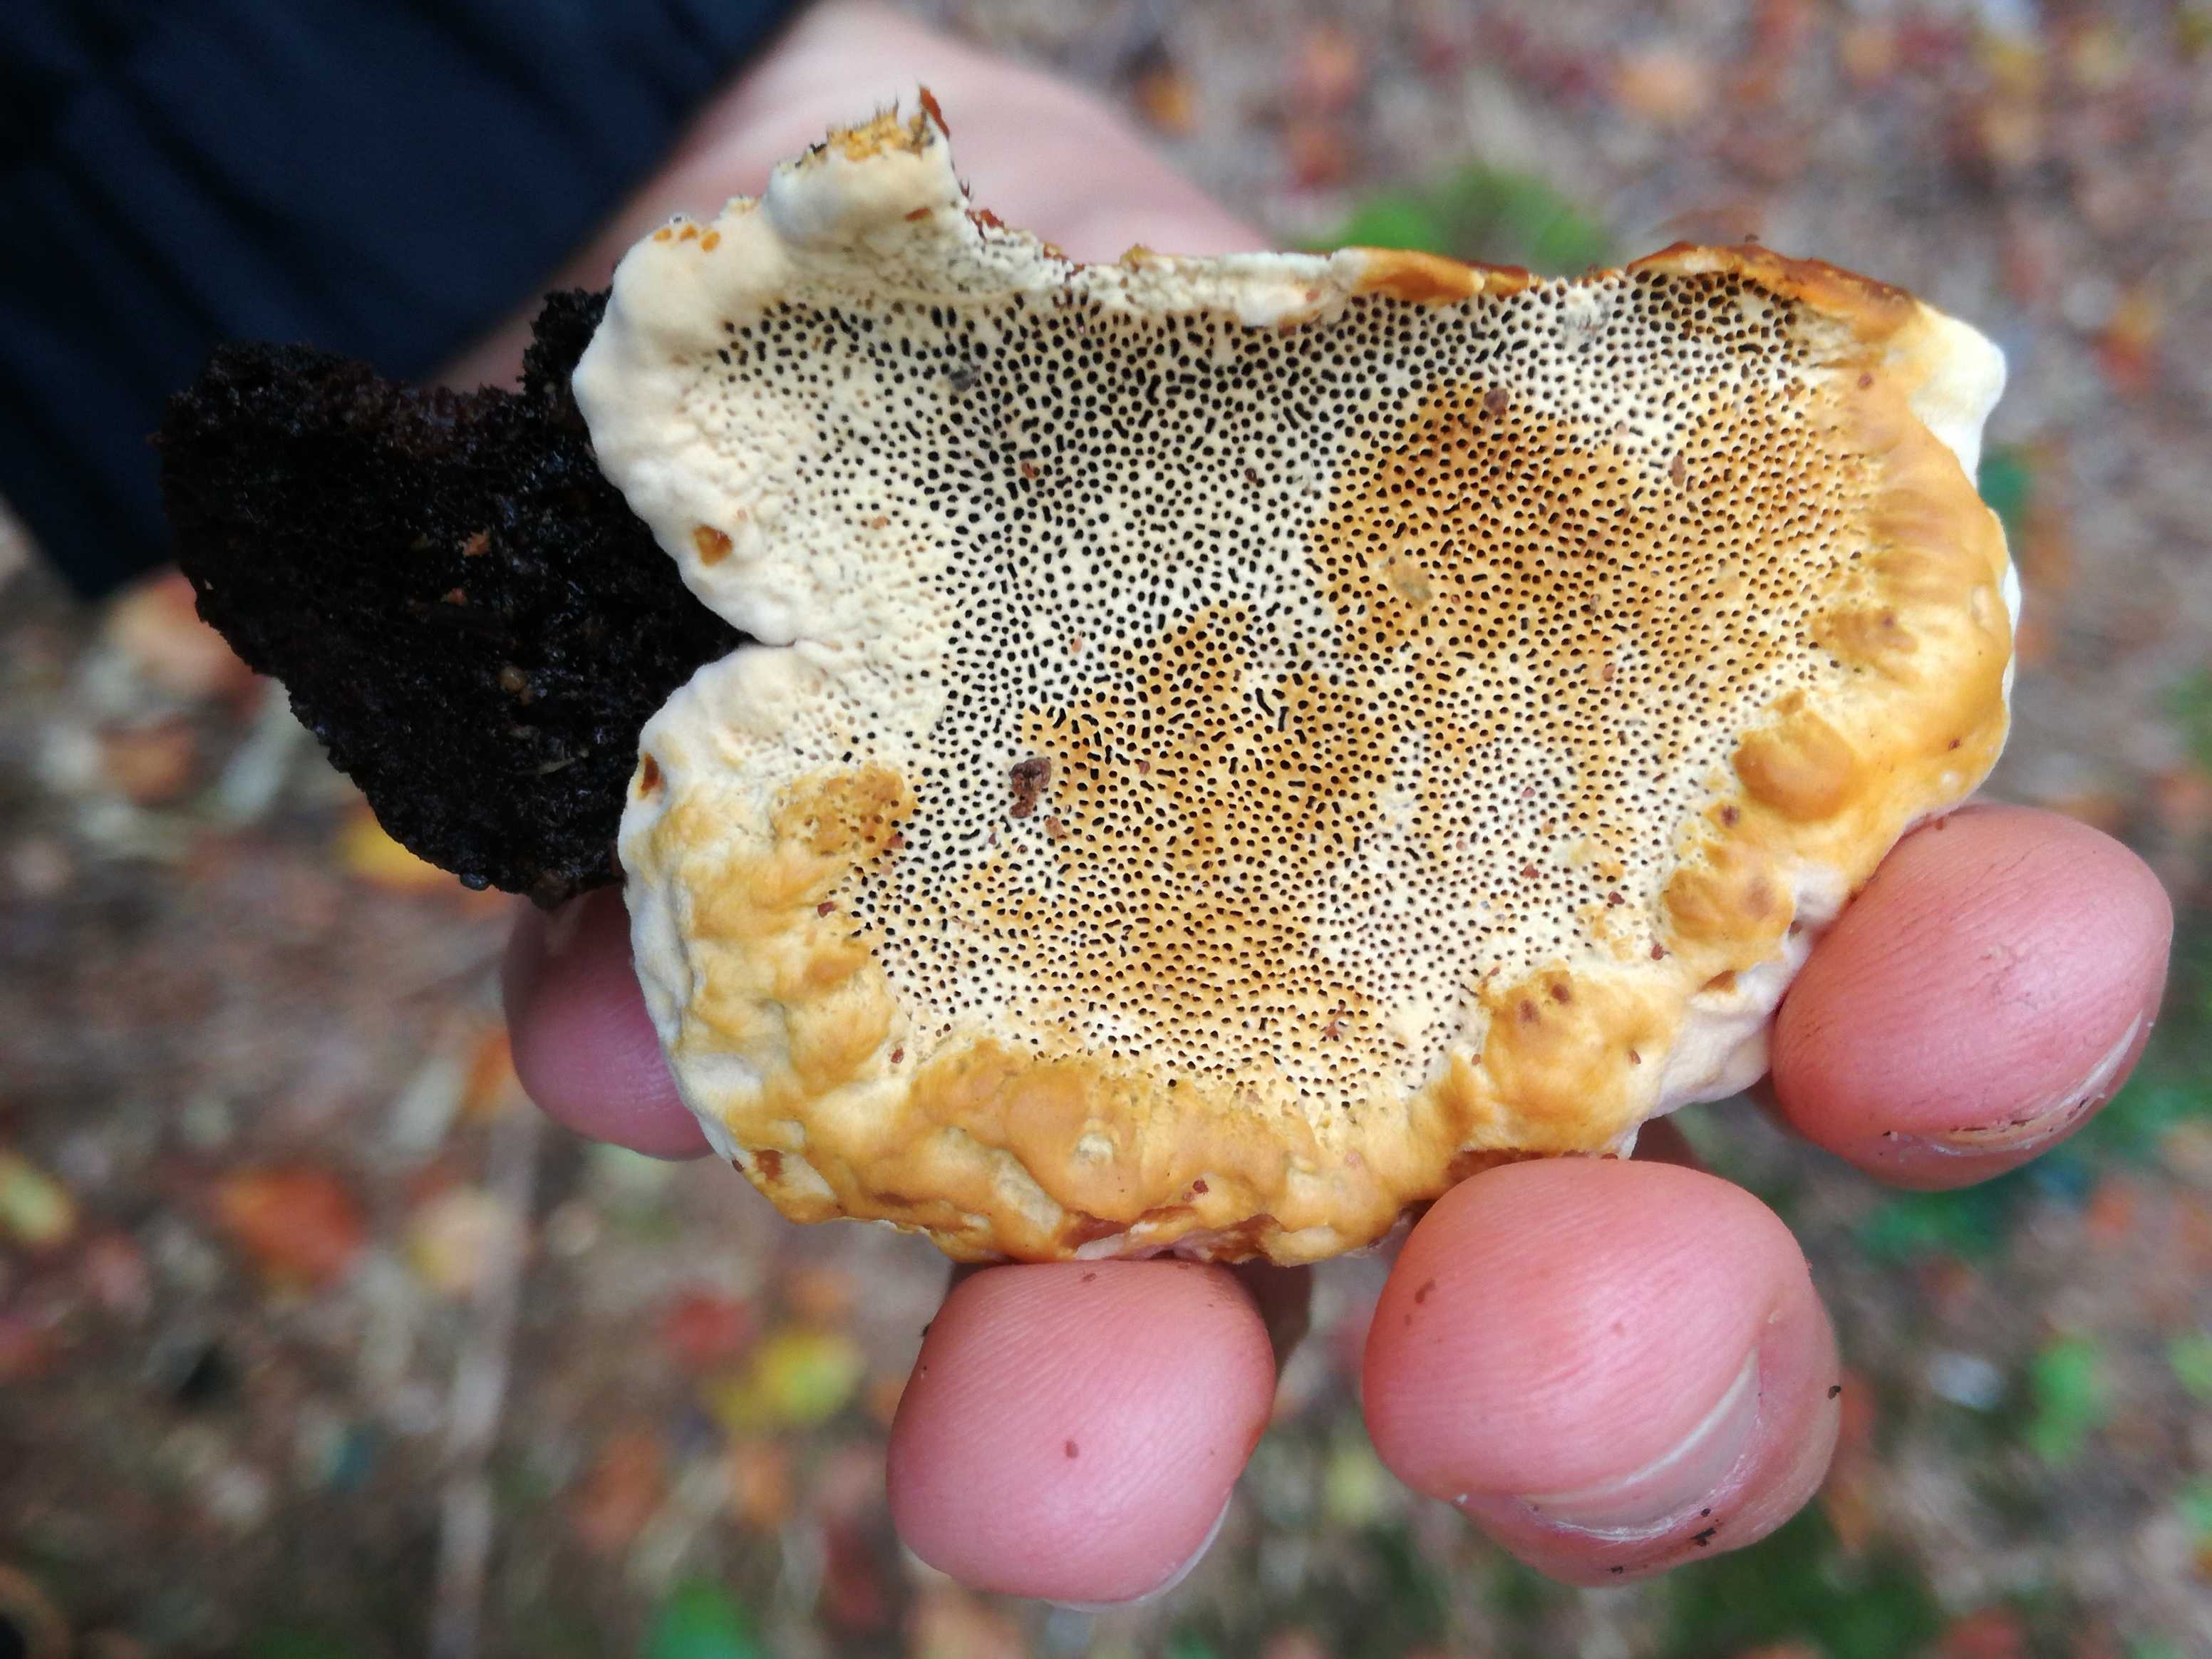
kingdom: Fungi
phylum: Basidiomycota
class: Agaricomycetes
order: Gloeophyllales
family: Gloeophyllaceae
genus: Gloeophyllum
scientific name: Gloeophyllum odoratum
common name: duftende korkhat
